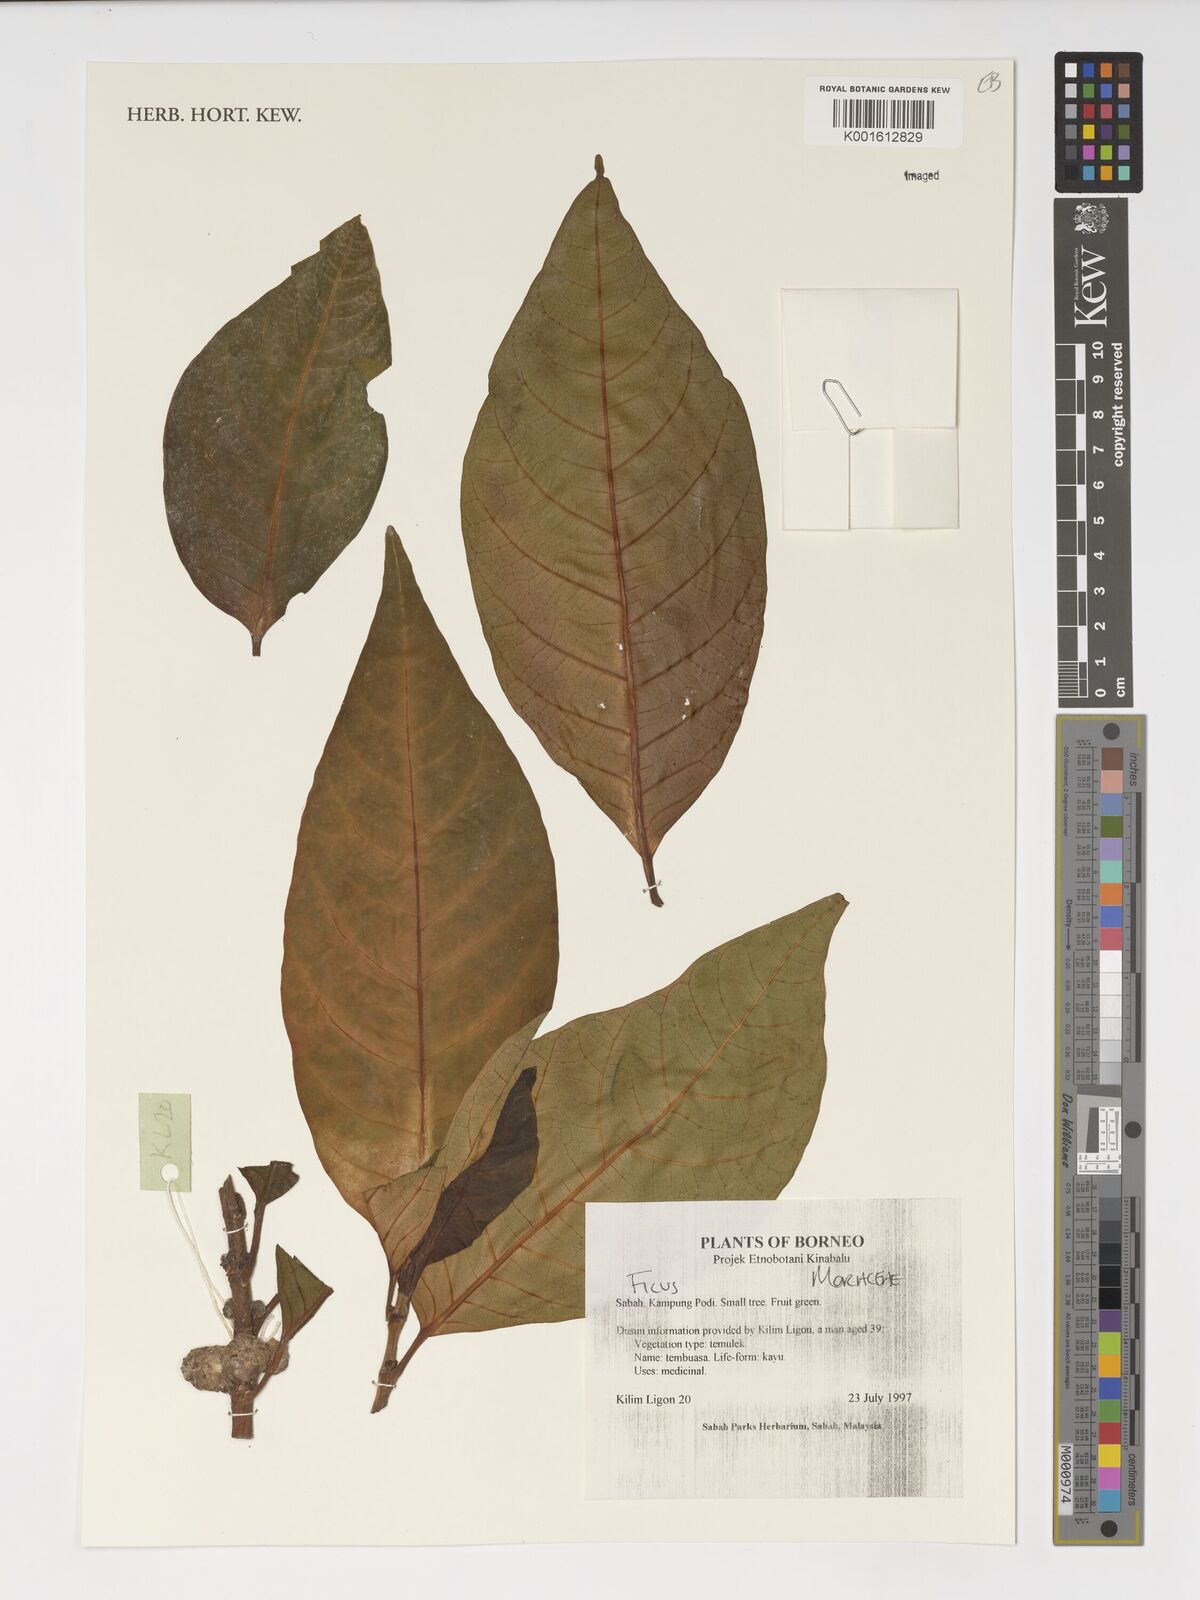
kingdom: Plantae
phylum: Tracheophyta
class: Magnoliopsida
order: Rosales
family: Moraceae
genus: Ficus
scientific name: Ficus
